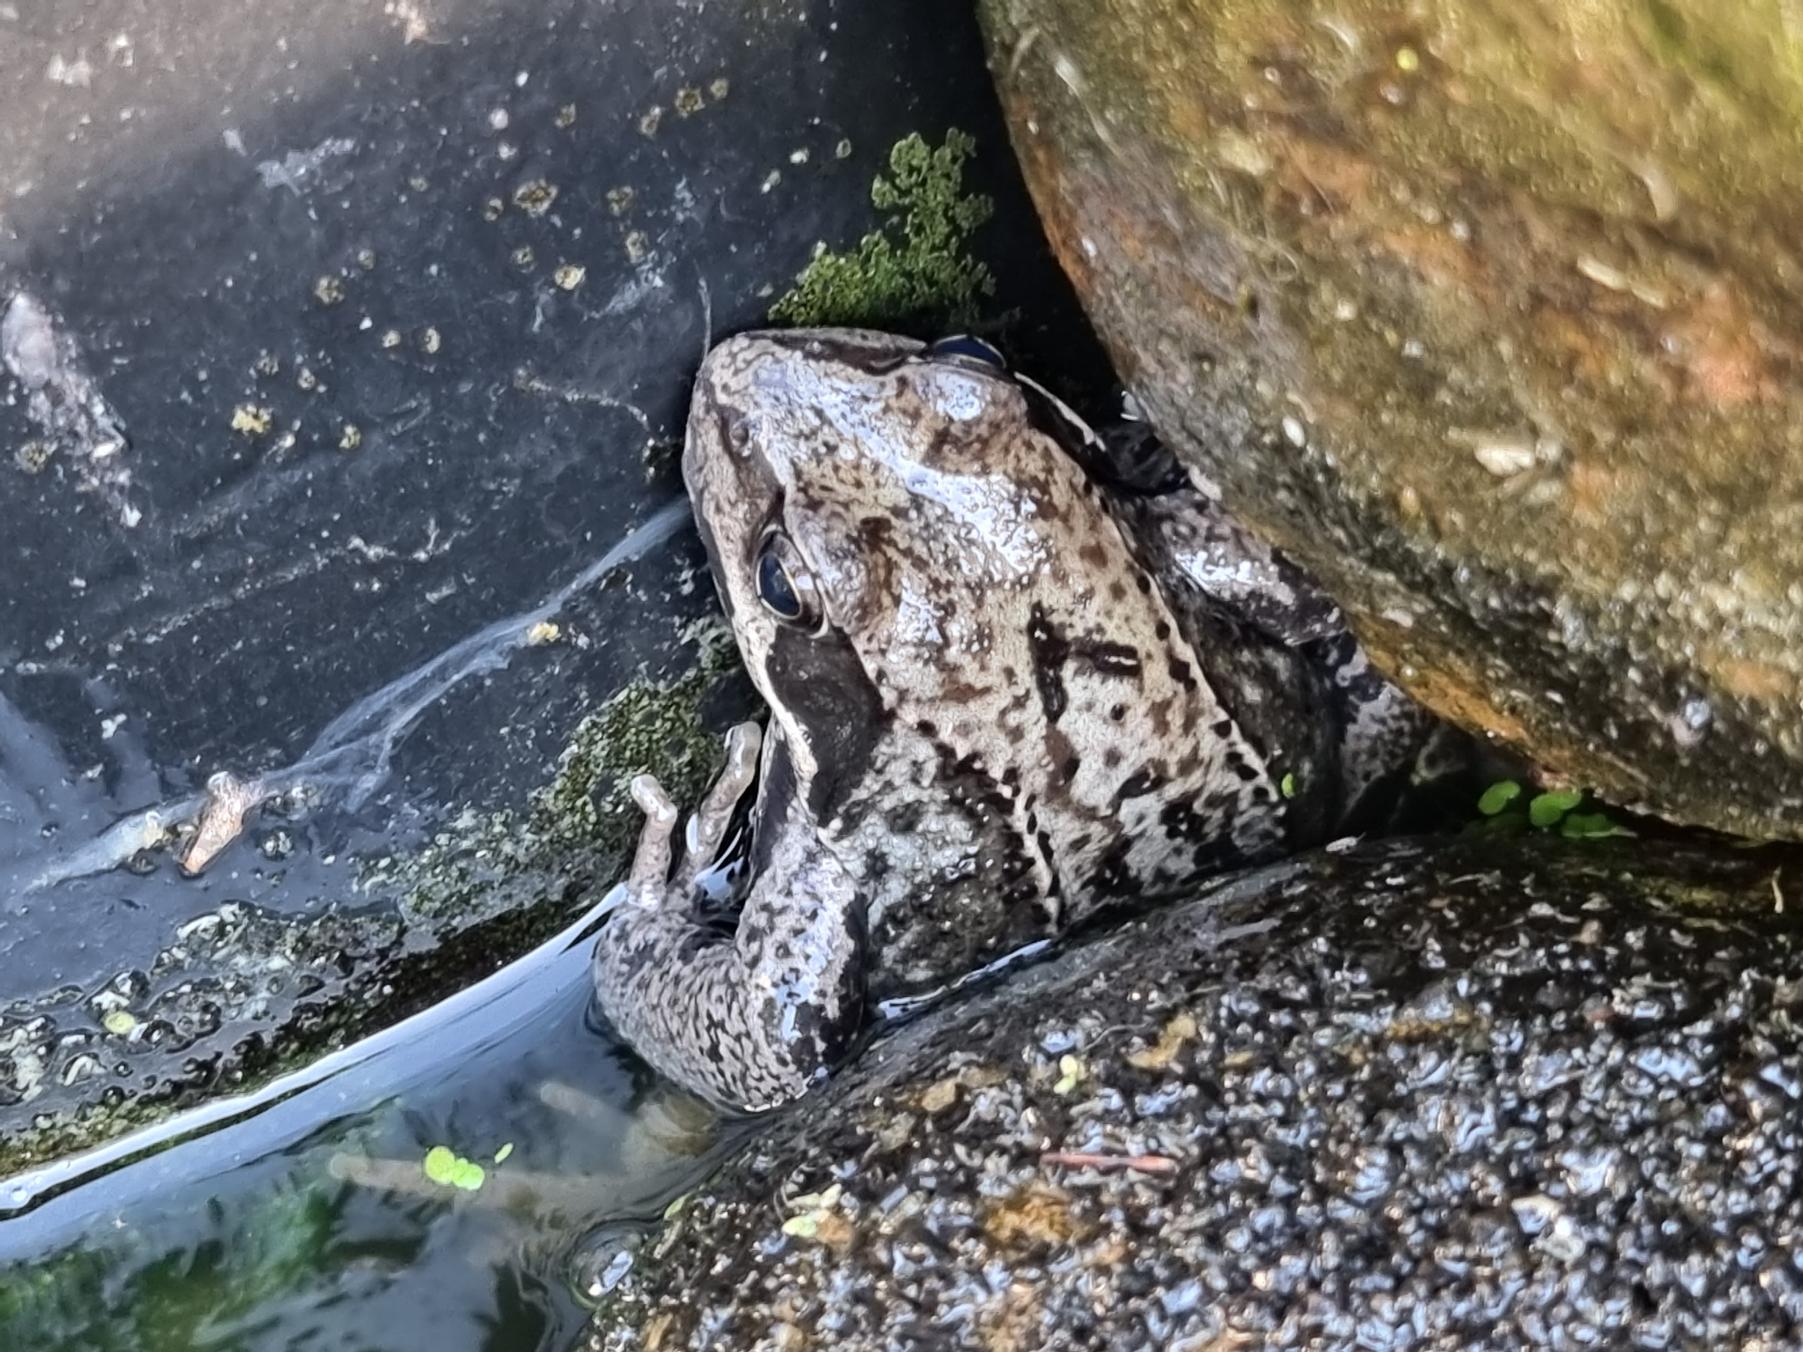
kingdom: Animalia
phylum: Chordata
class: Amphibia
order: Anura
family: Ranidae
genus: Rana
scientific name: Rana temporaria
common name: Butsnudet frø
